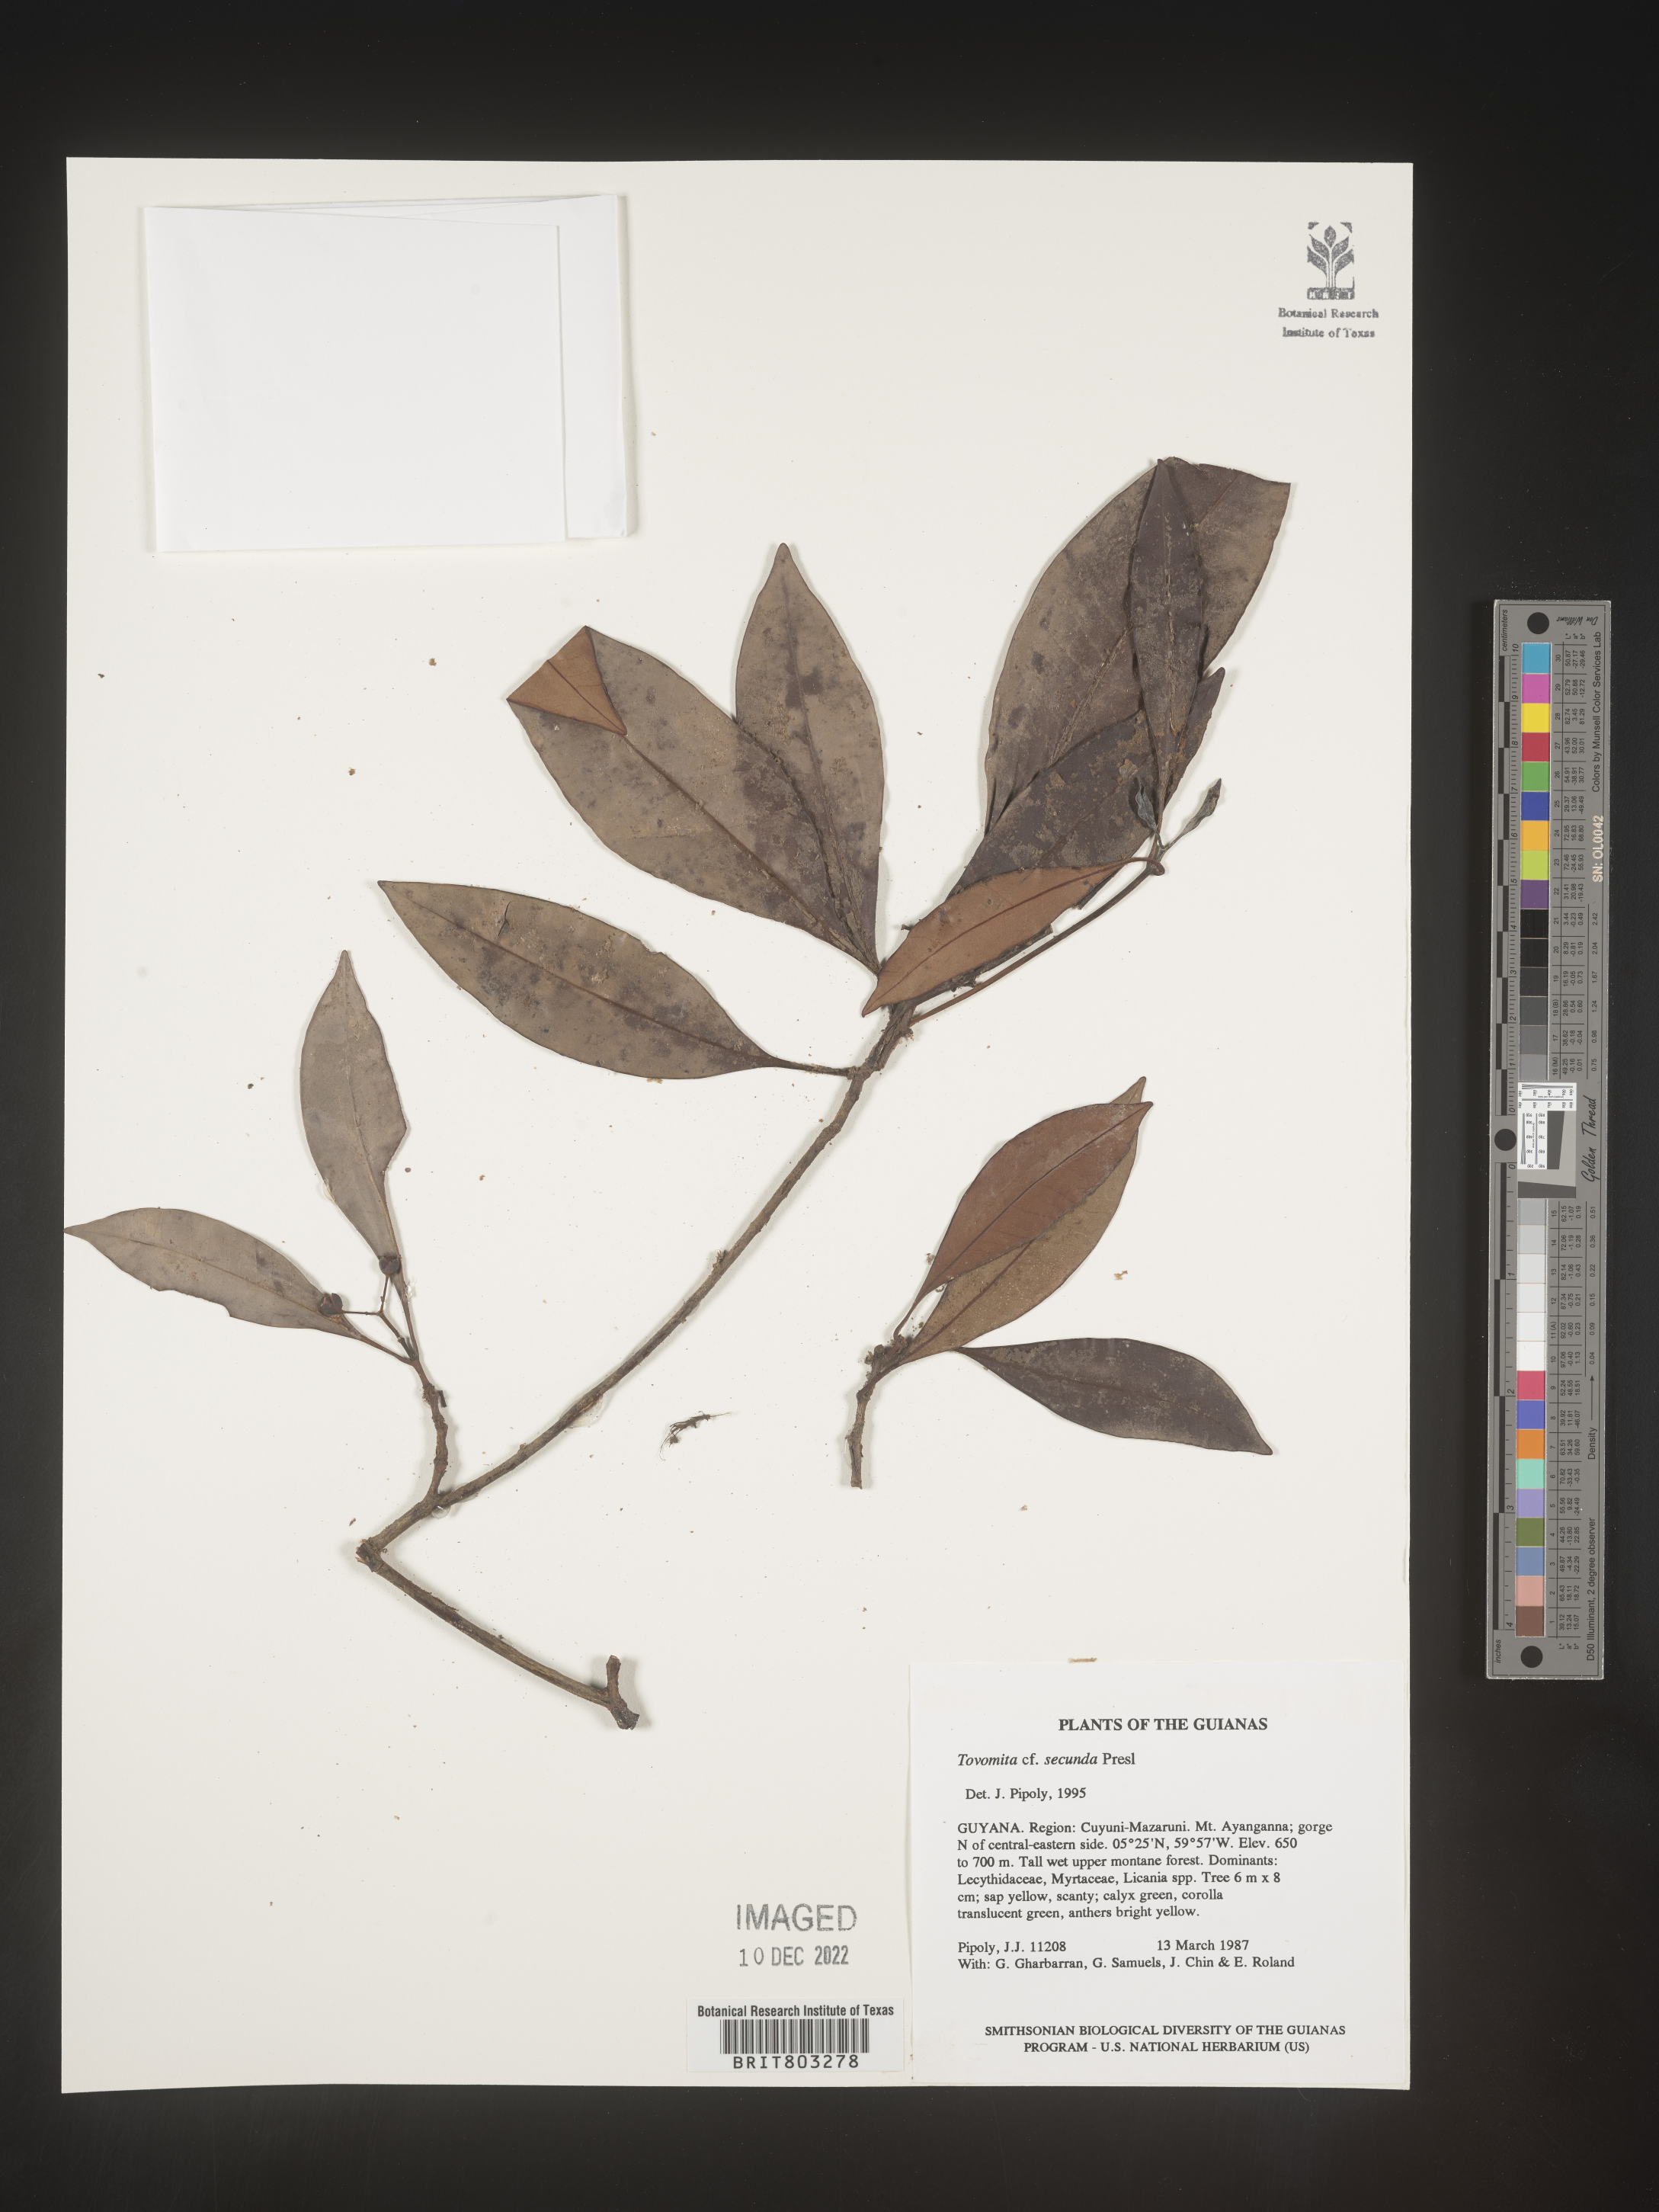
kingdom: Plantae
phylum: Tracheophyta
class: Magnoliopsida
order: Malpighiales
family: Clusiaceae
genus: Tovomita
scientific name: Tovomita
